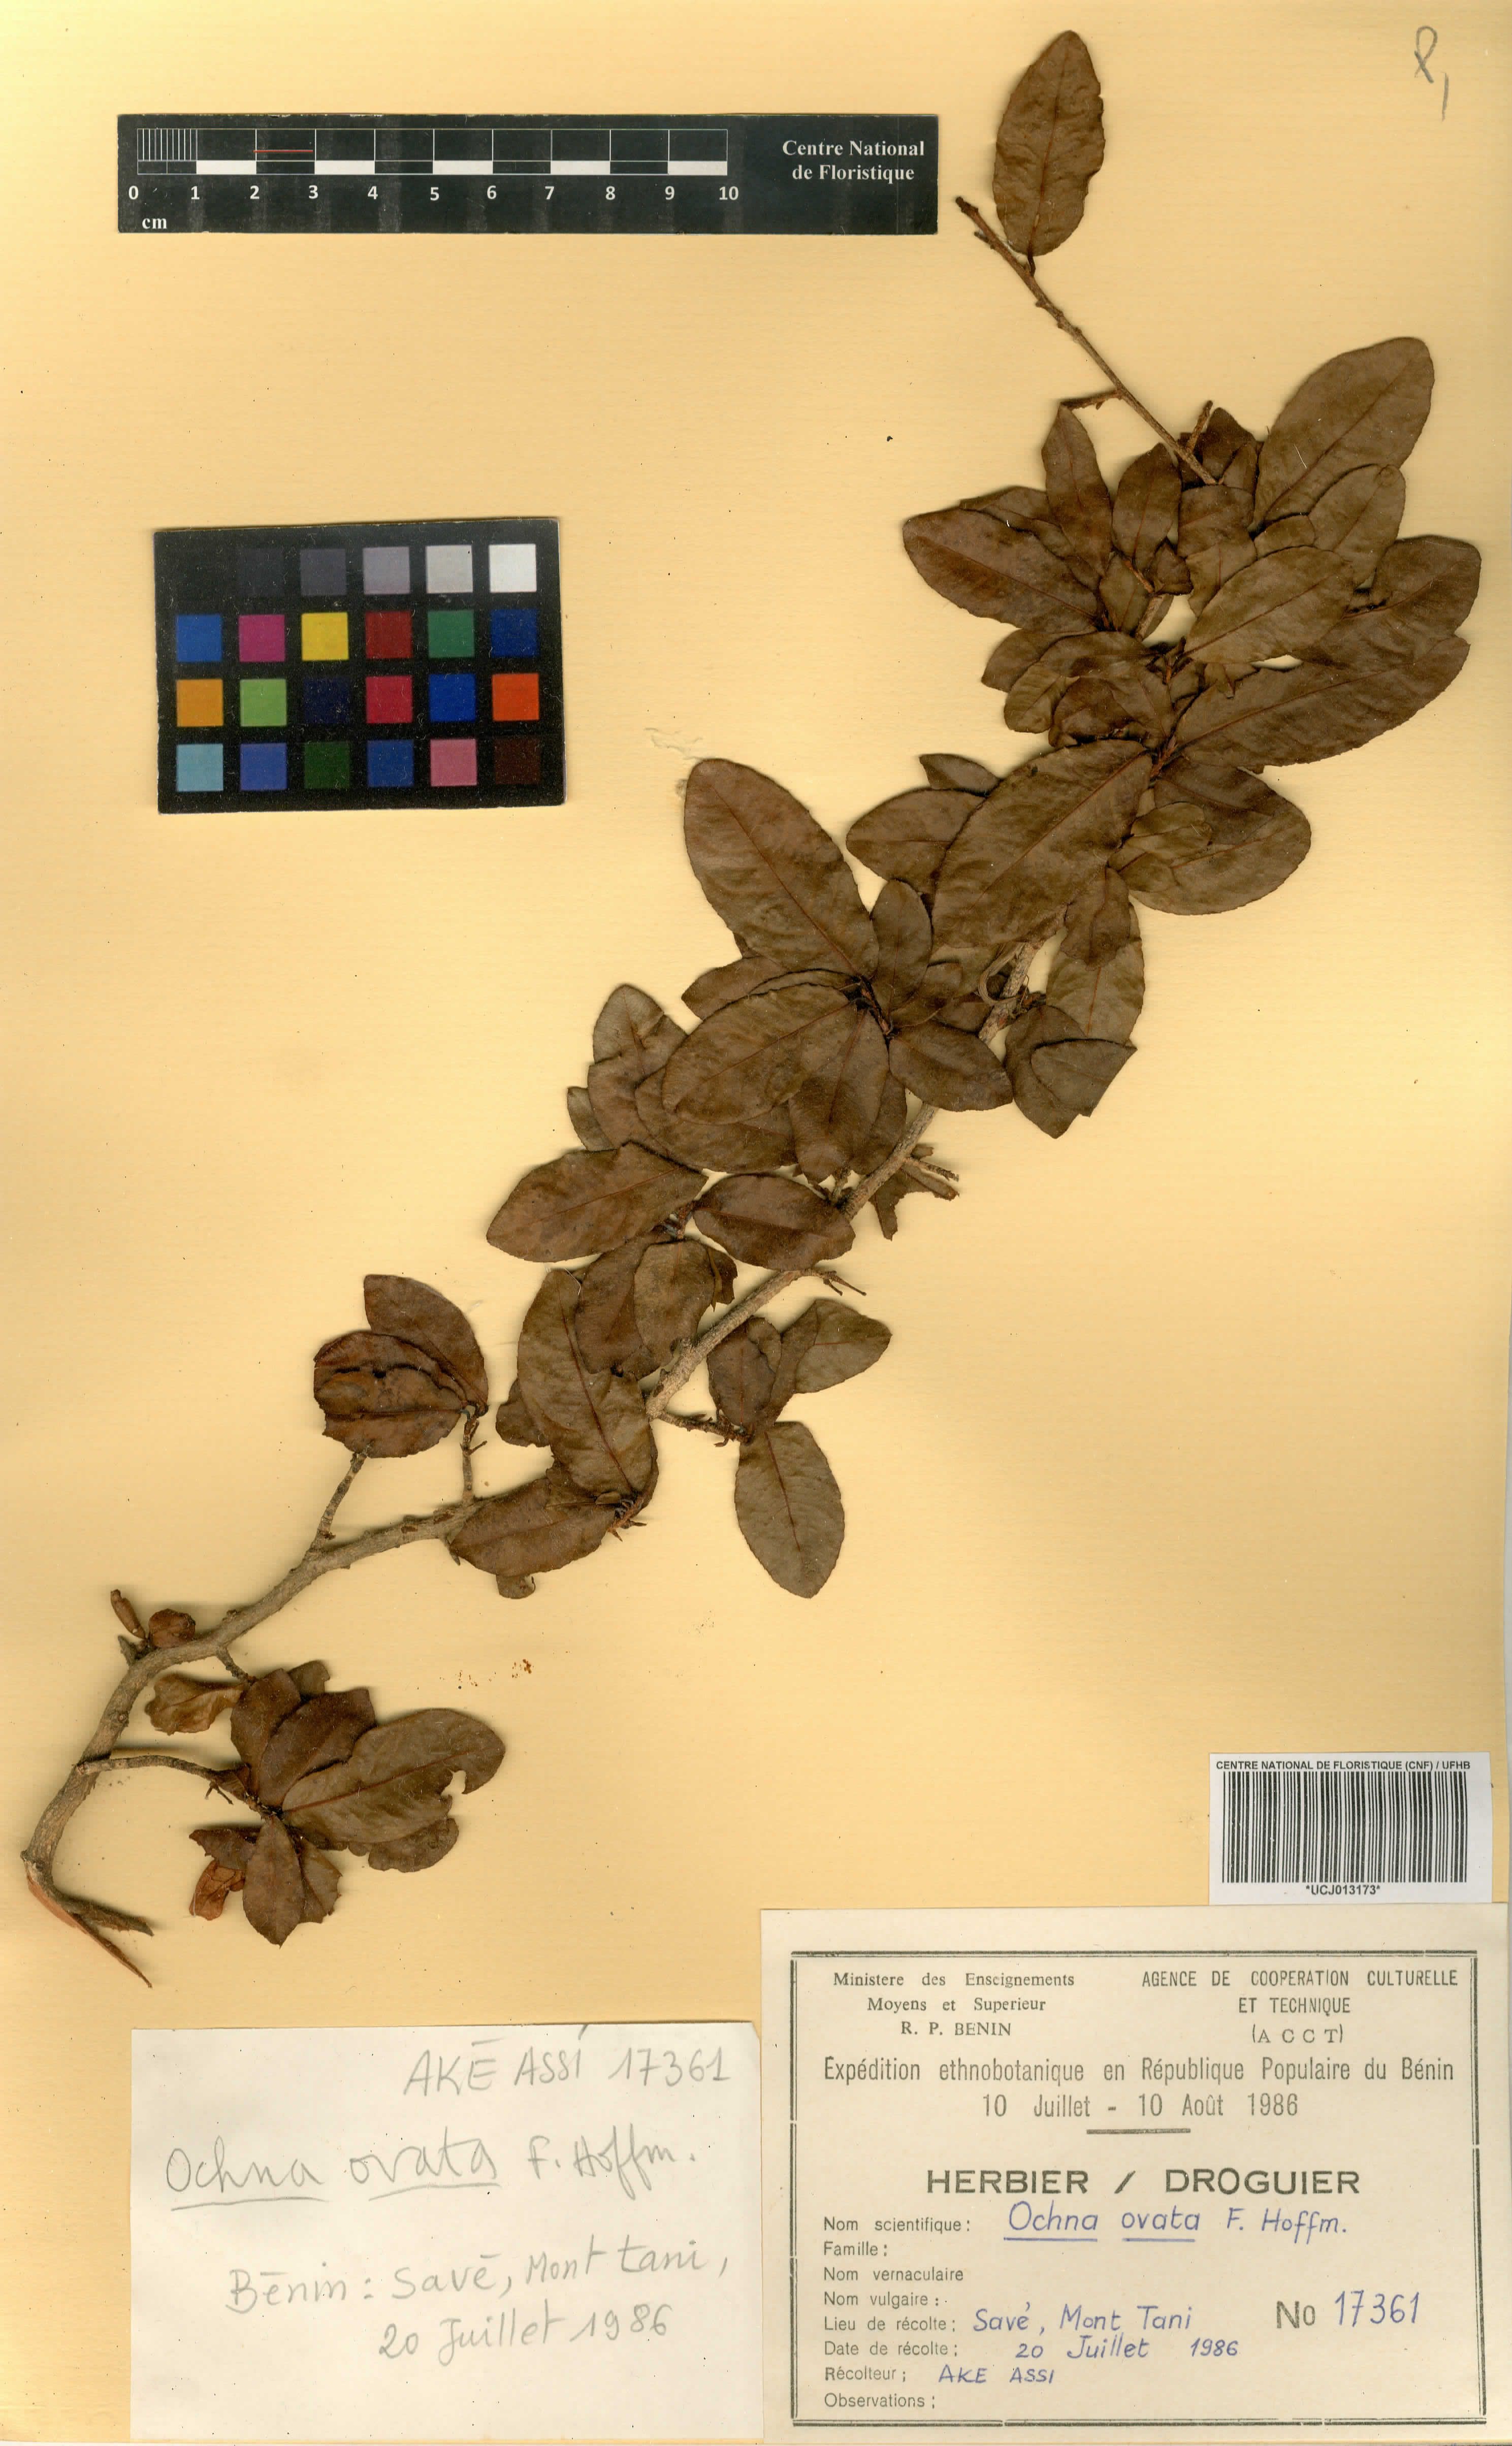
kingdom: Plantae
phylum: Tracheophyta
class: Magnoliopsida
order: Malpighiales
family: Ochnaceae
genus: Ochna
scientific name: Ochna ovata
